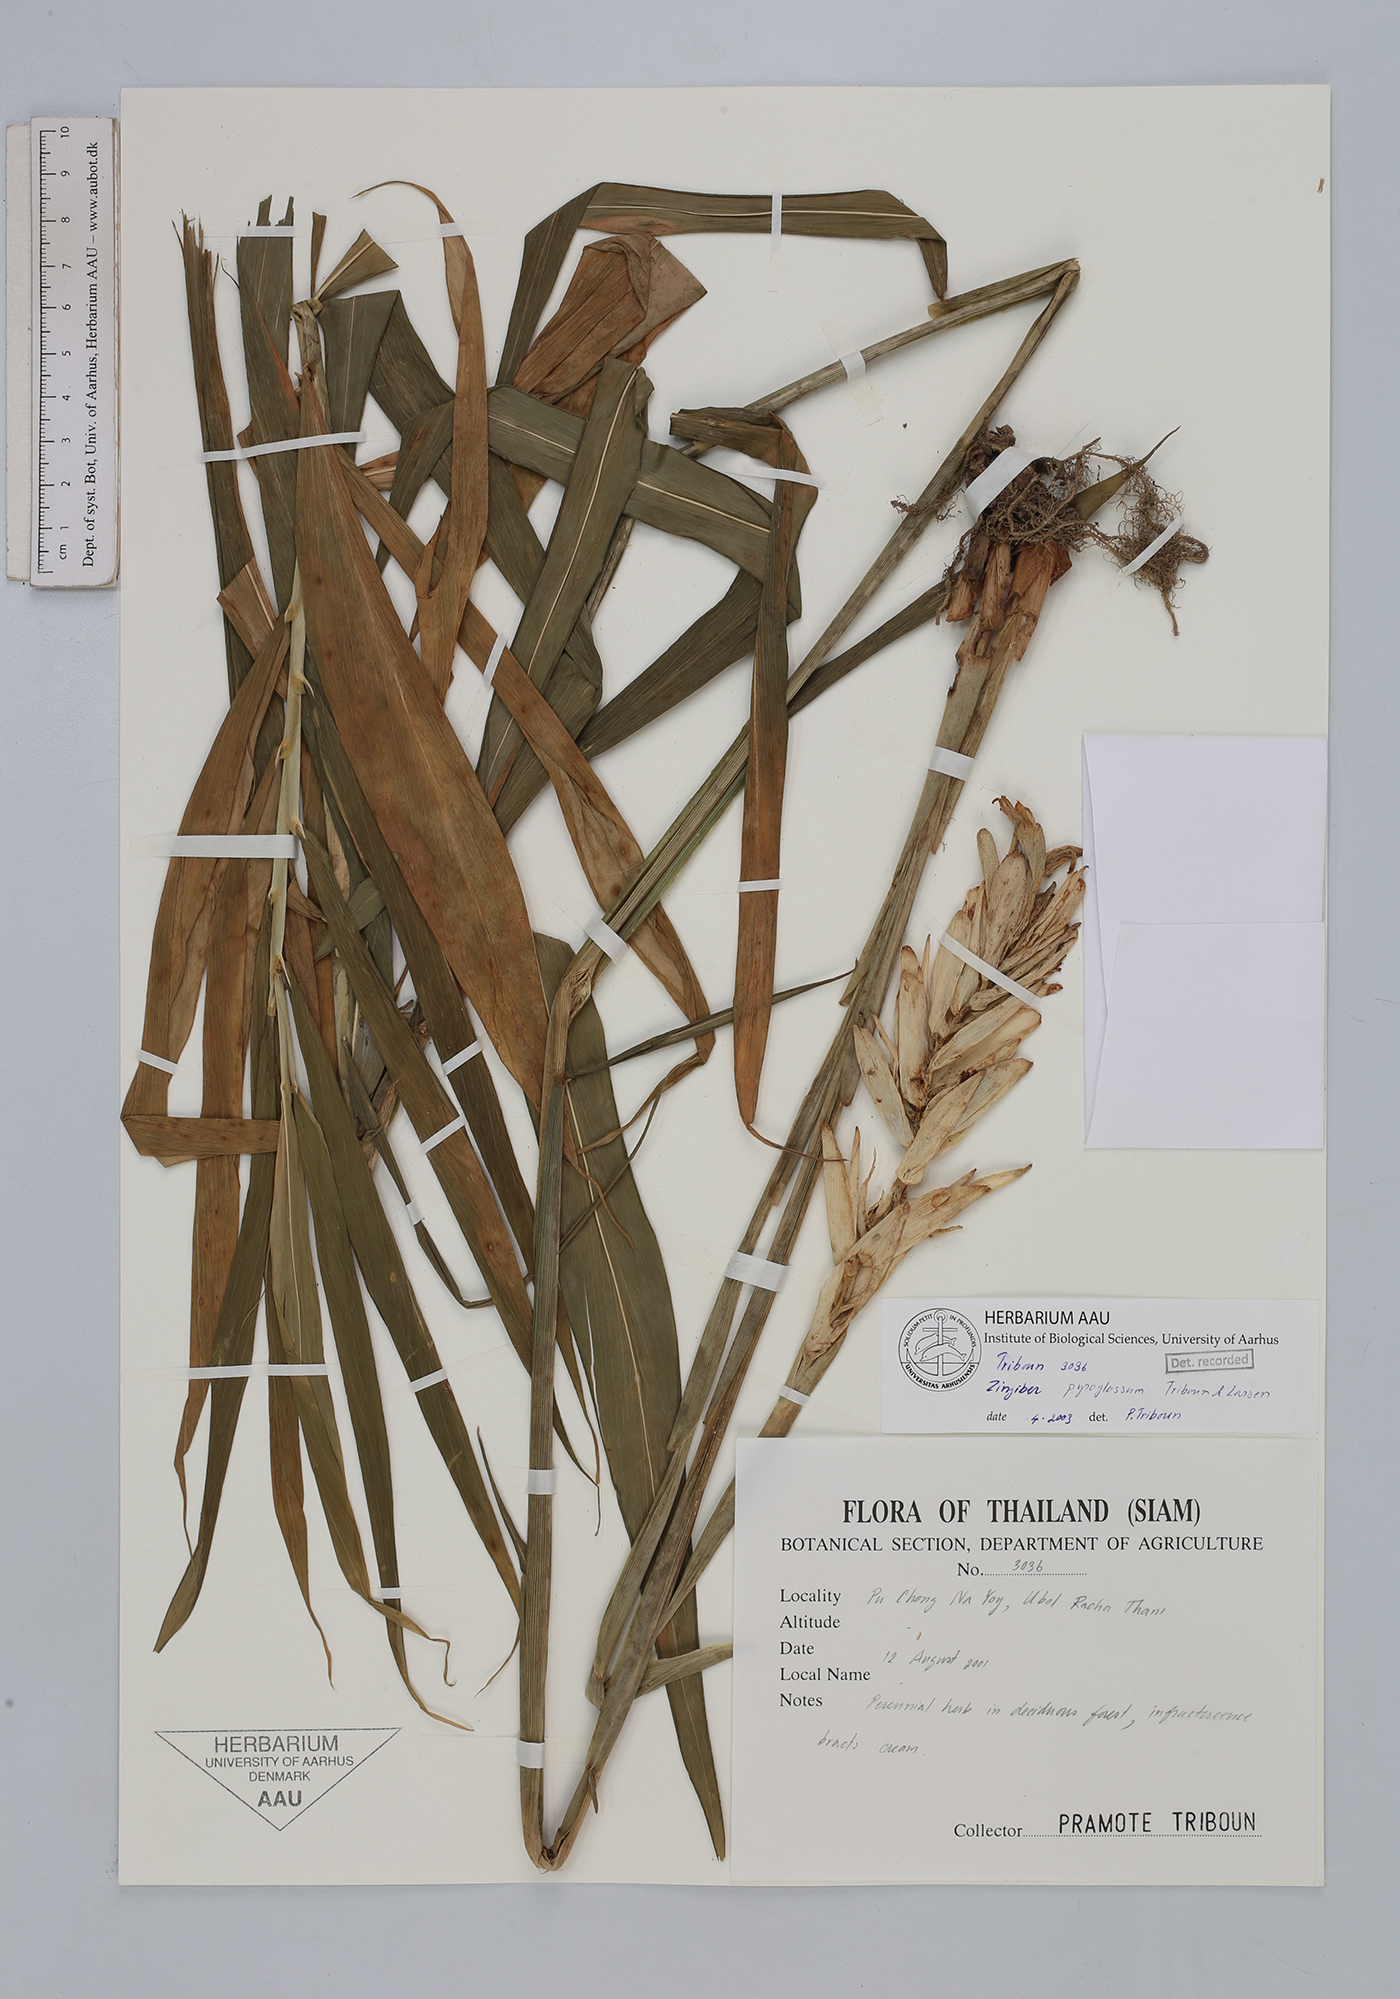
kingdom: Plantae
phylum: Tracheophyta
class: Liliopsida
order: Zingiberales
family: Zingiberaceae
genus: Zingiber
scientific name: Zingiber pyroglossum
